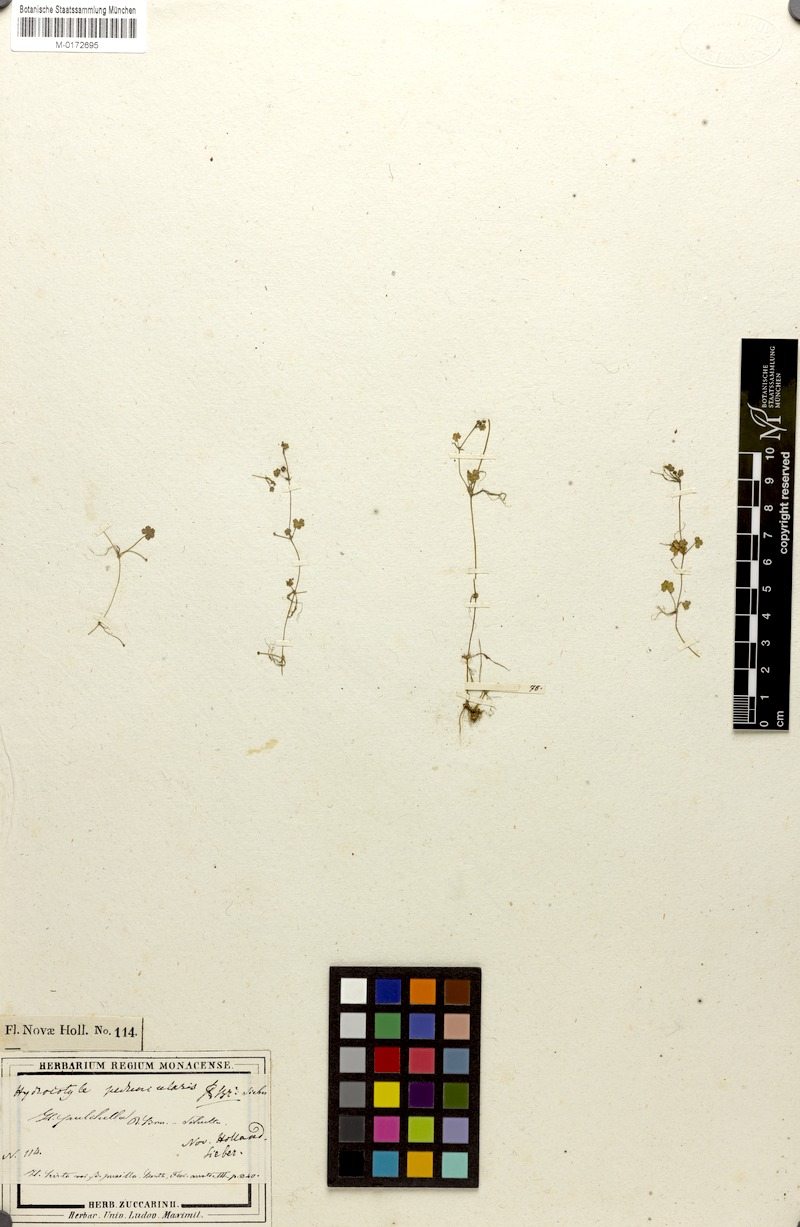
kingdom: Plantae
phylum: Tracheophyta
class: Magnoliopsida
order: Apiales
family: Araliaceae
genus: Hydrocotyle
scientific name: Hydrocotyle peduncularis
